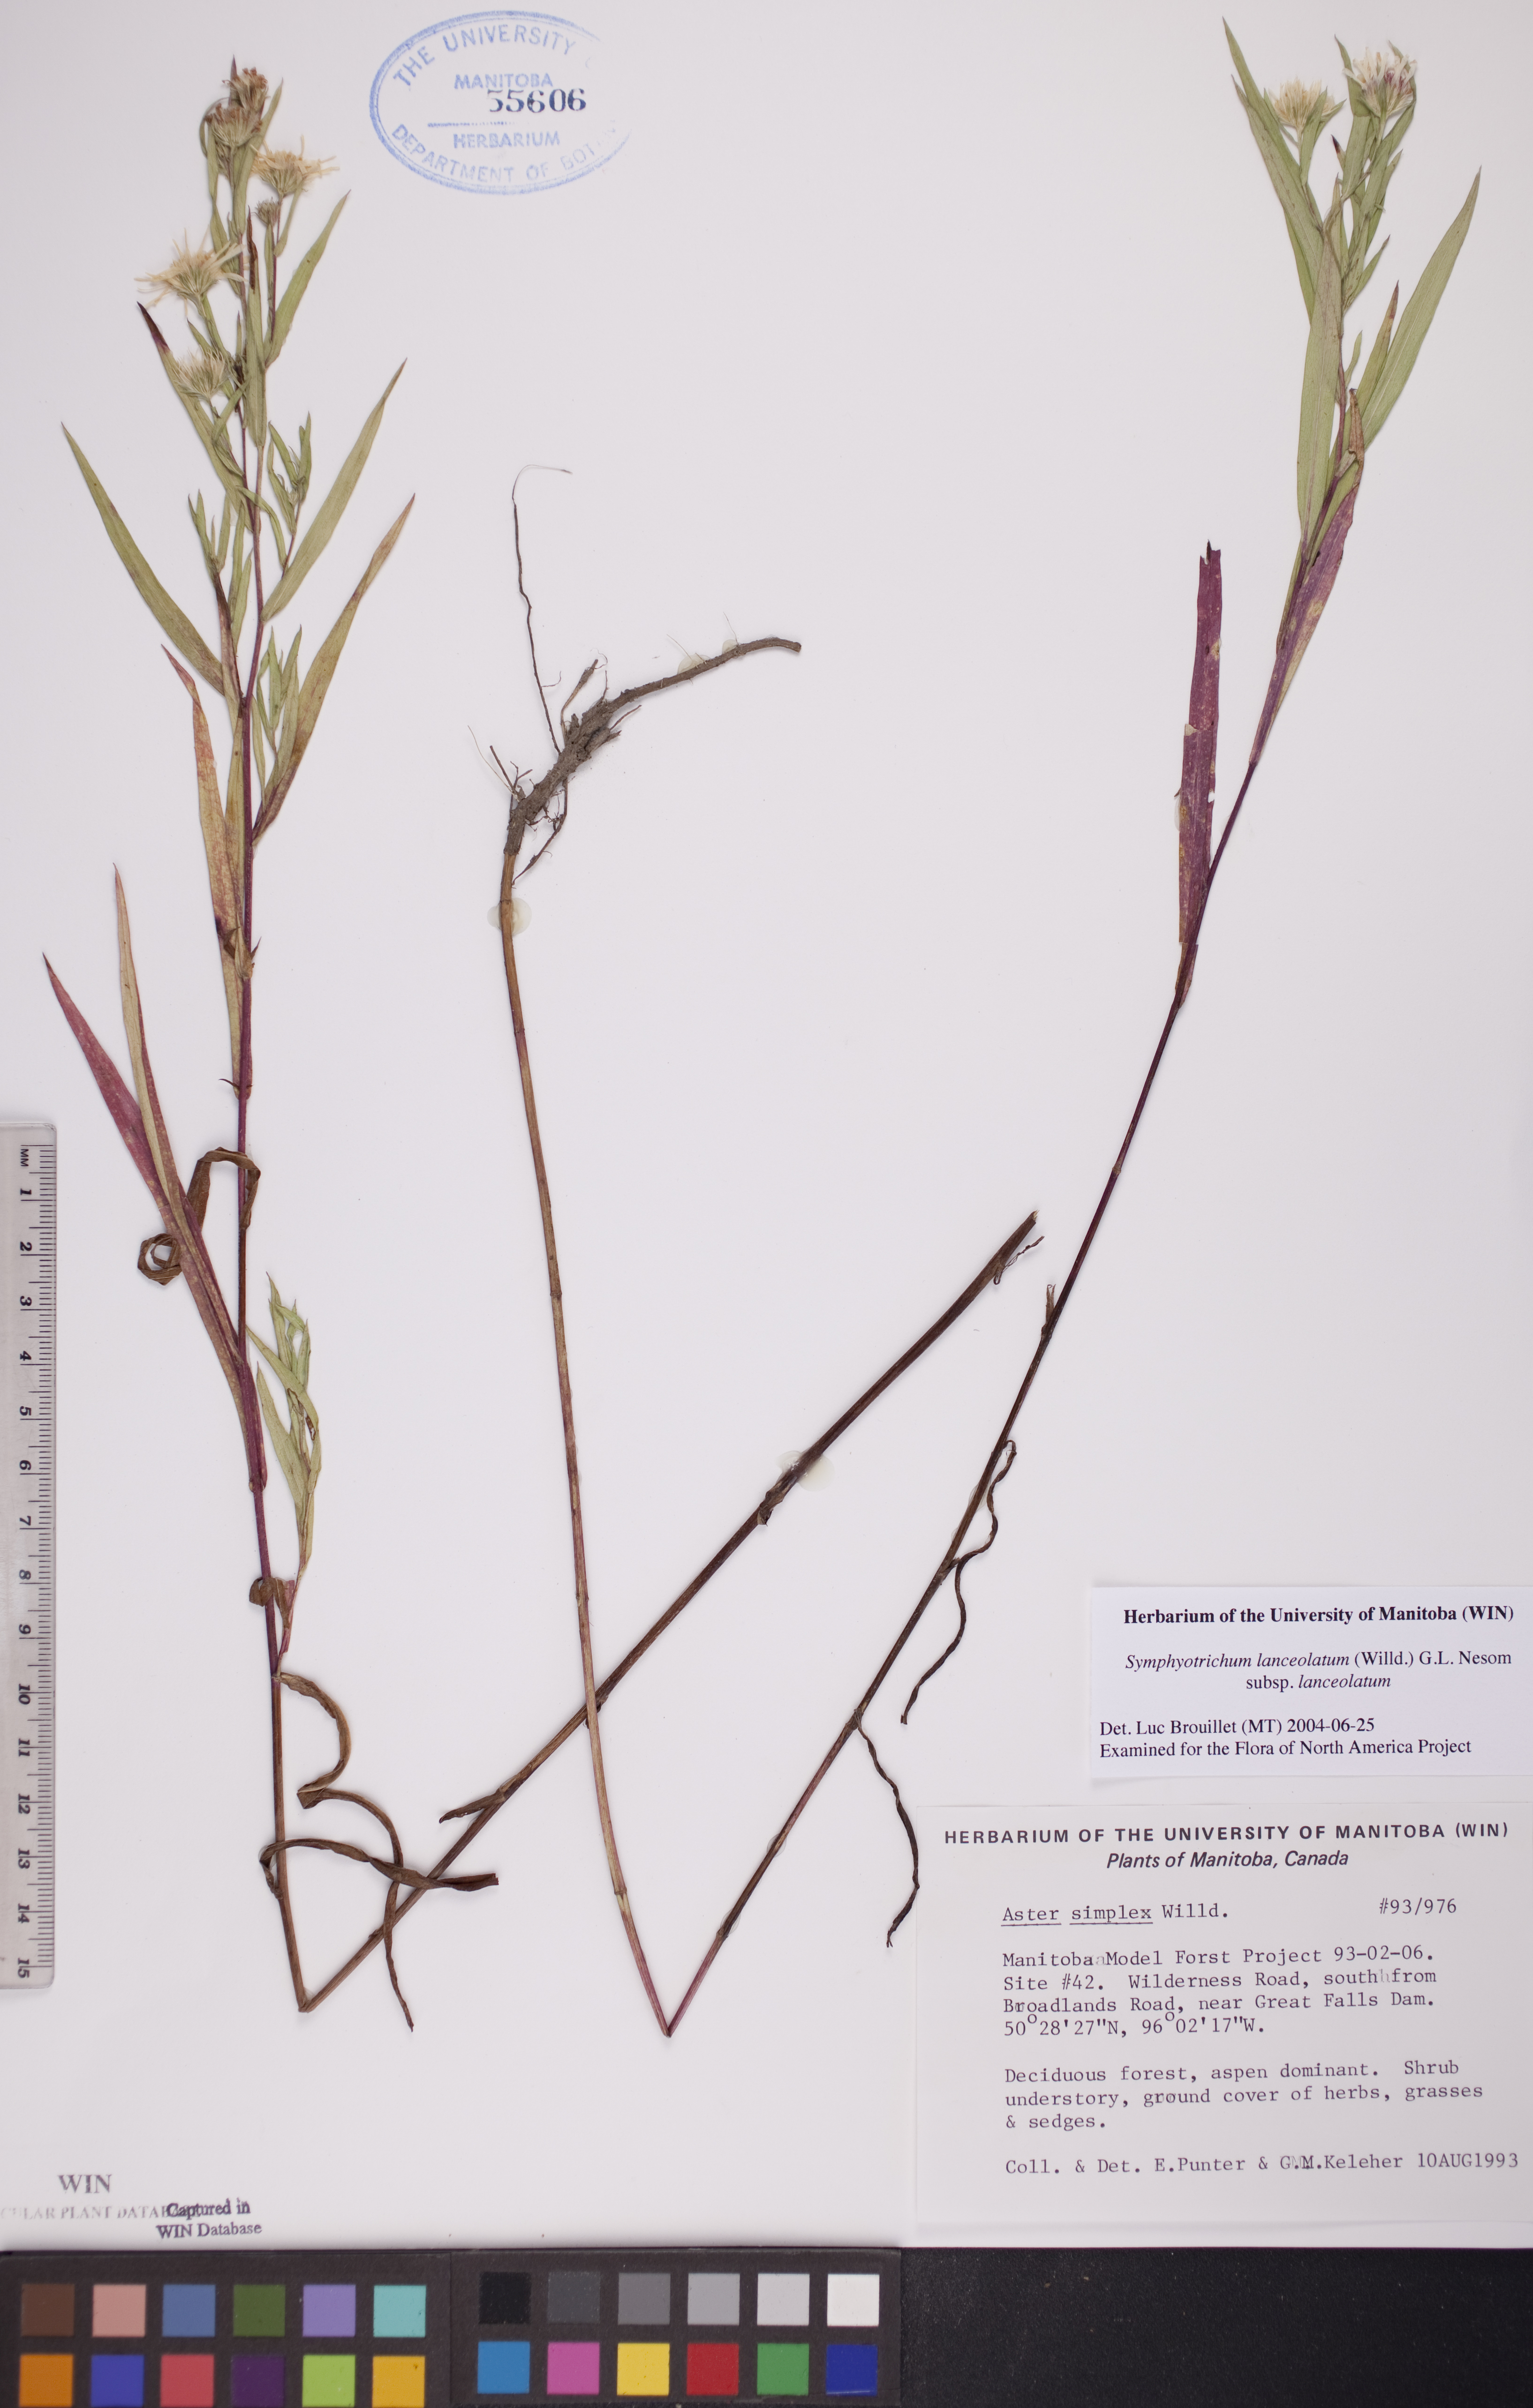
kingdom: Plantae
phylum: Tracheophyta
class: Magnoliopsida
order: Asterales
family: Asteraceae
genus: Symphyotrichum
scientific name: Symphyotrichum lanceolatum
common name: Panicled aster
